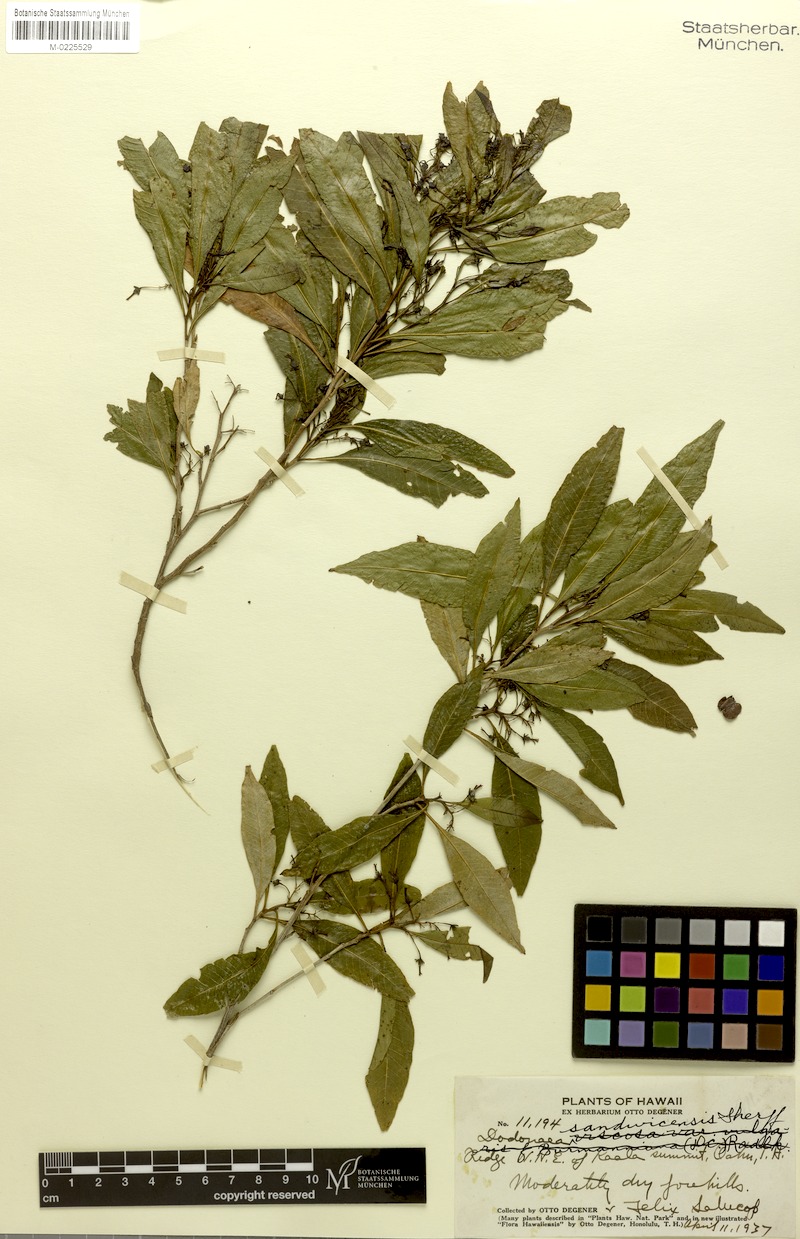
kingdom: Plantae
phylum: Tracheophyta
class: Magnoliopsida
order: Sapindales
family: Sapindaceae
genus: Dodonaea
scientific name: Dodonaea viscosa
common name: Hopbush
